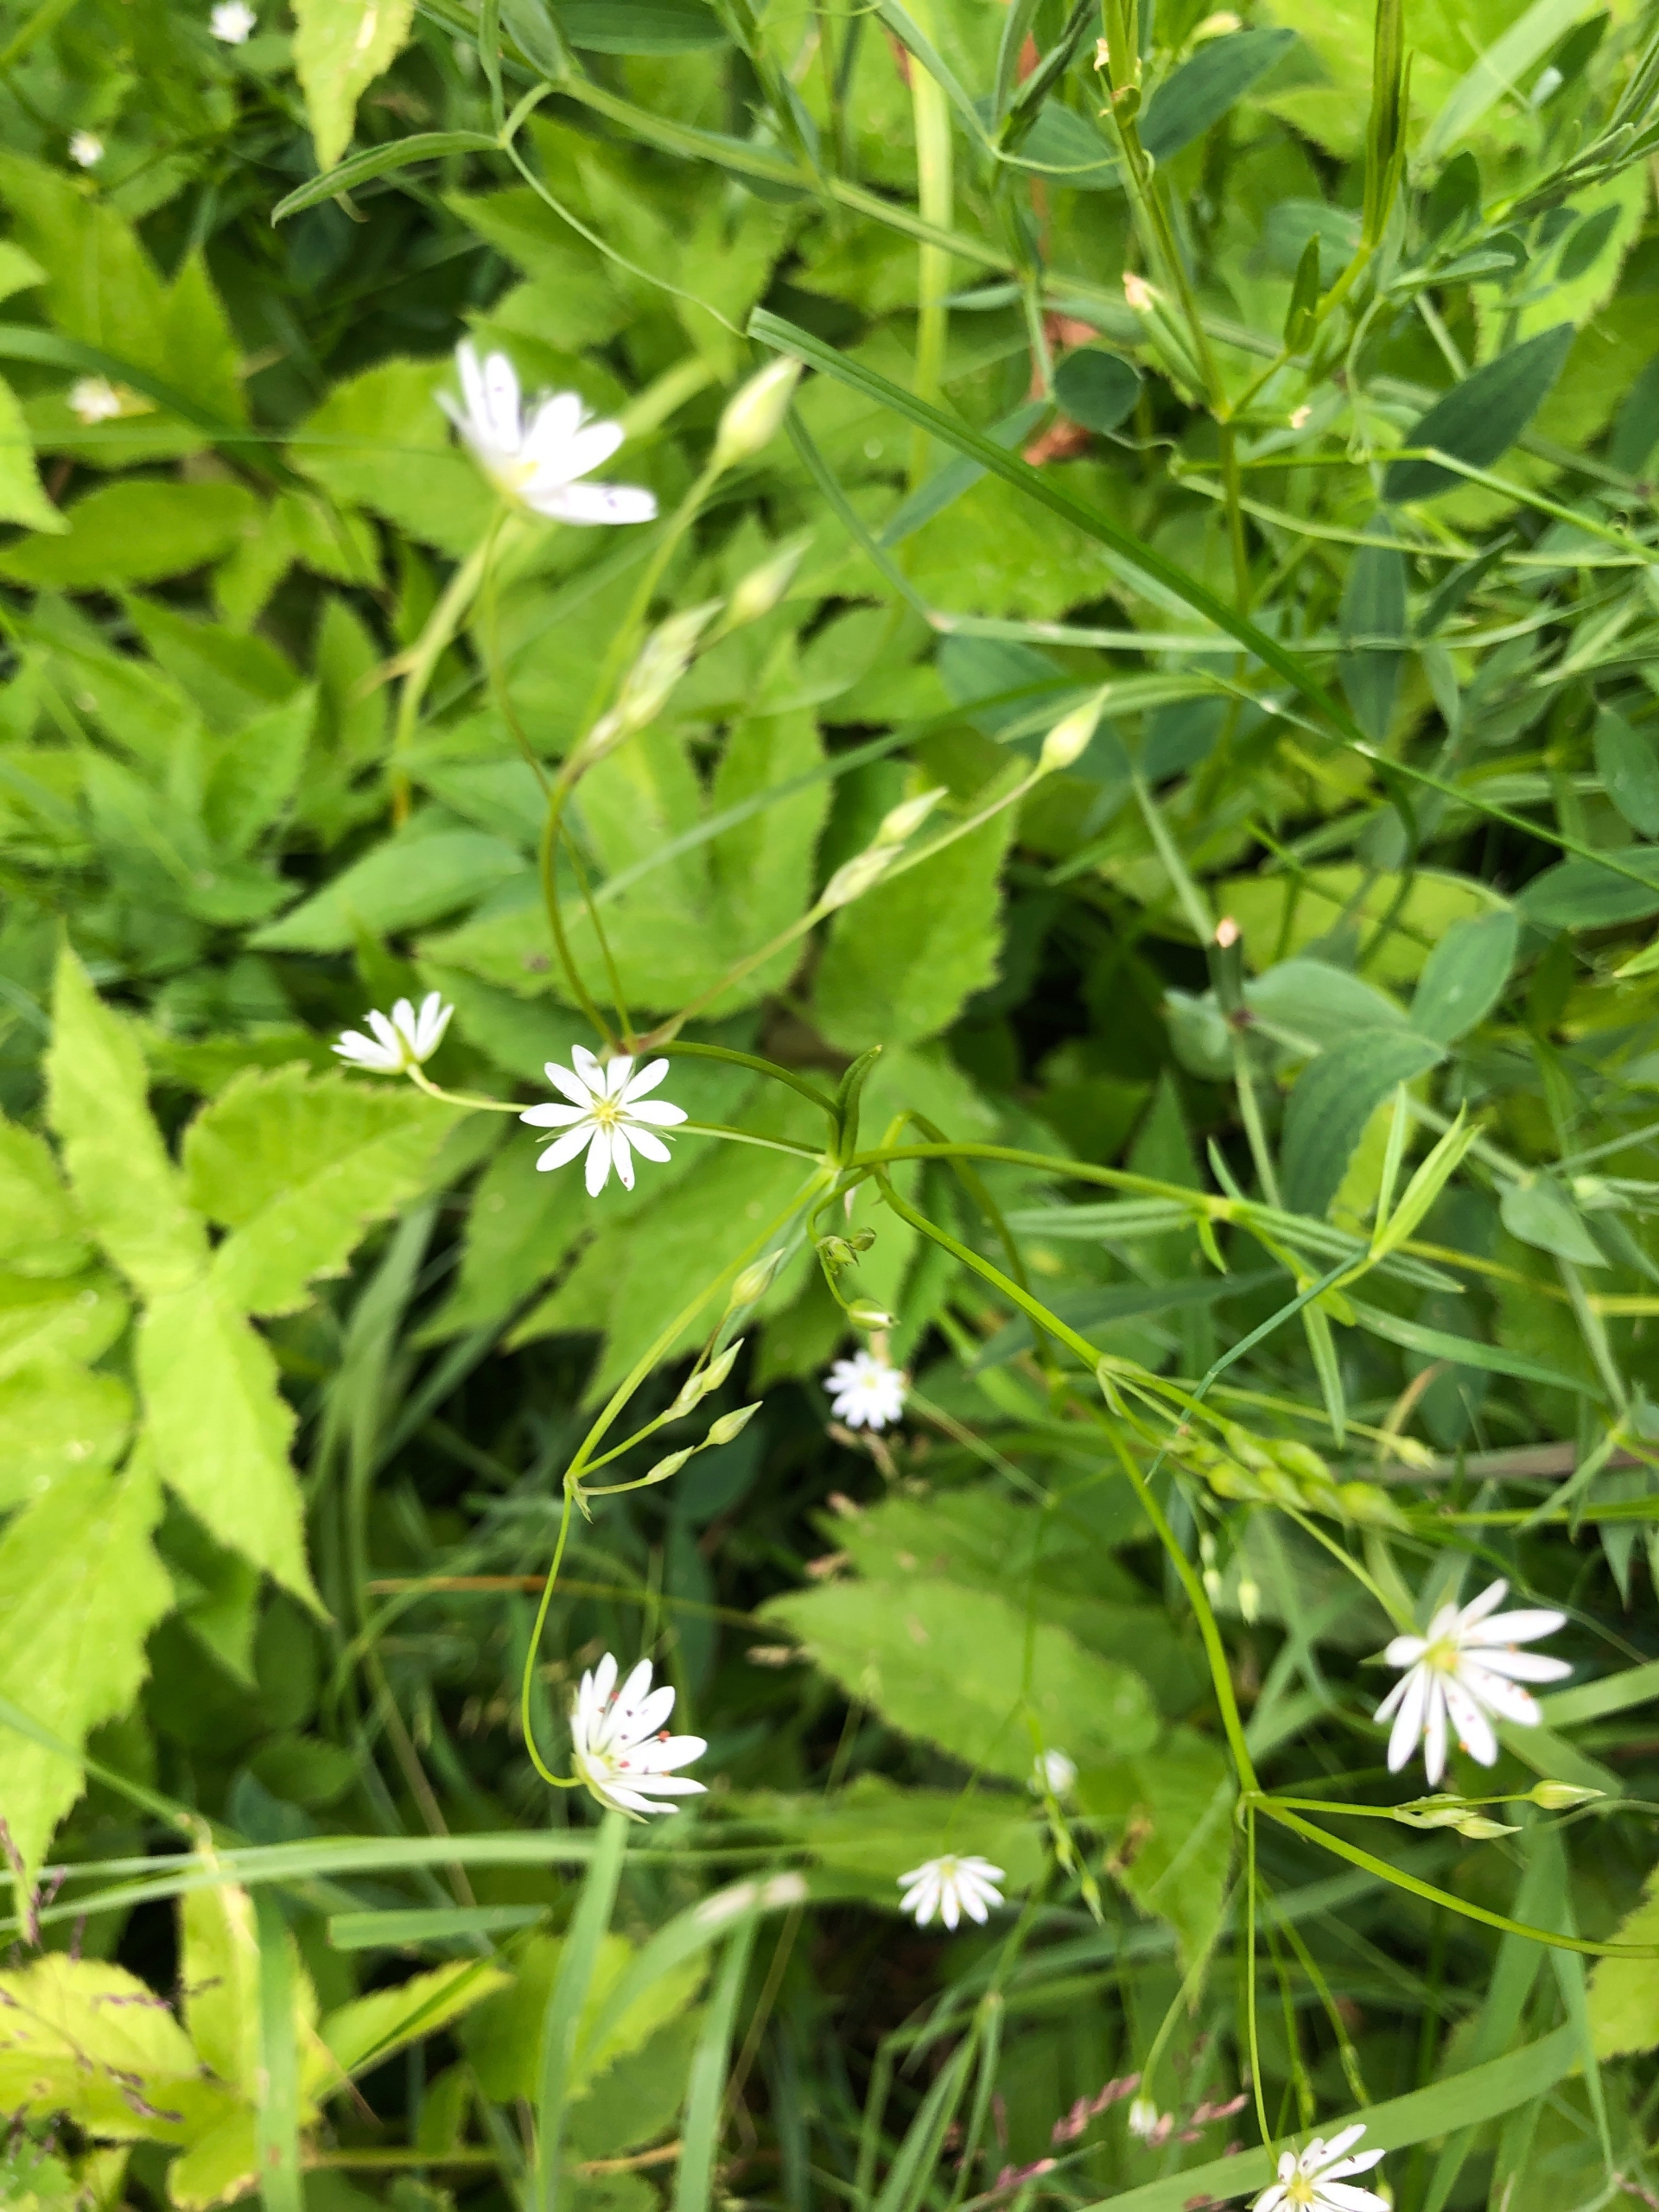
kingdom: Plantae
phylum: Tracheophyta
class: Magnoliopsida
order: Caryophyllales
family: Caryophyllaceae
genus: Stellaria
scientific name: Stellaria graminea
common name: Græsbladet fladstjerne
